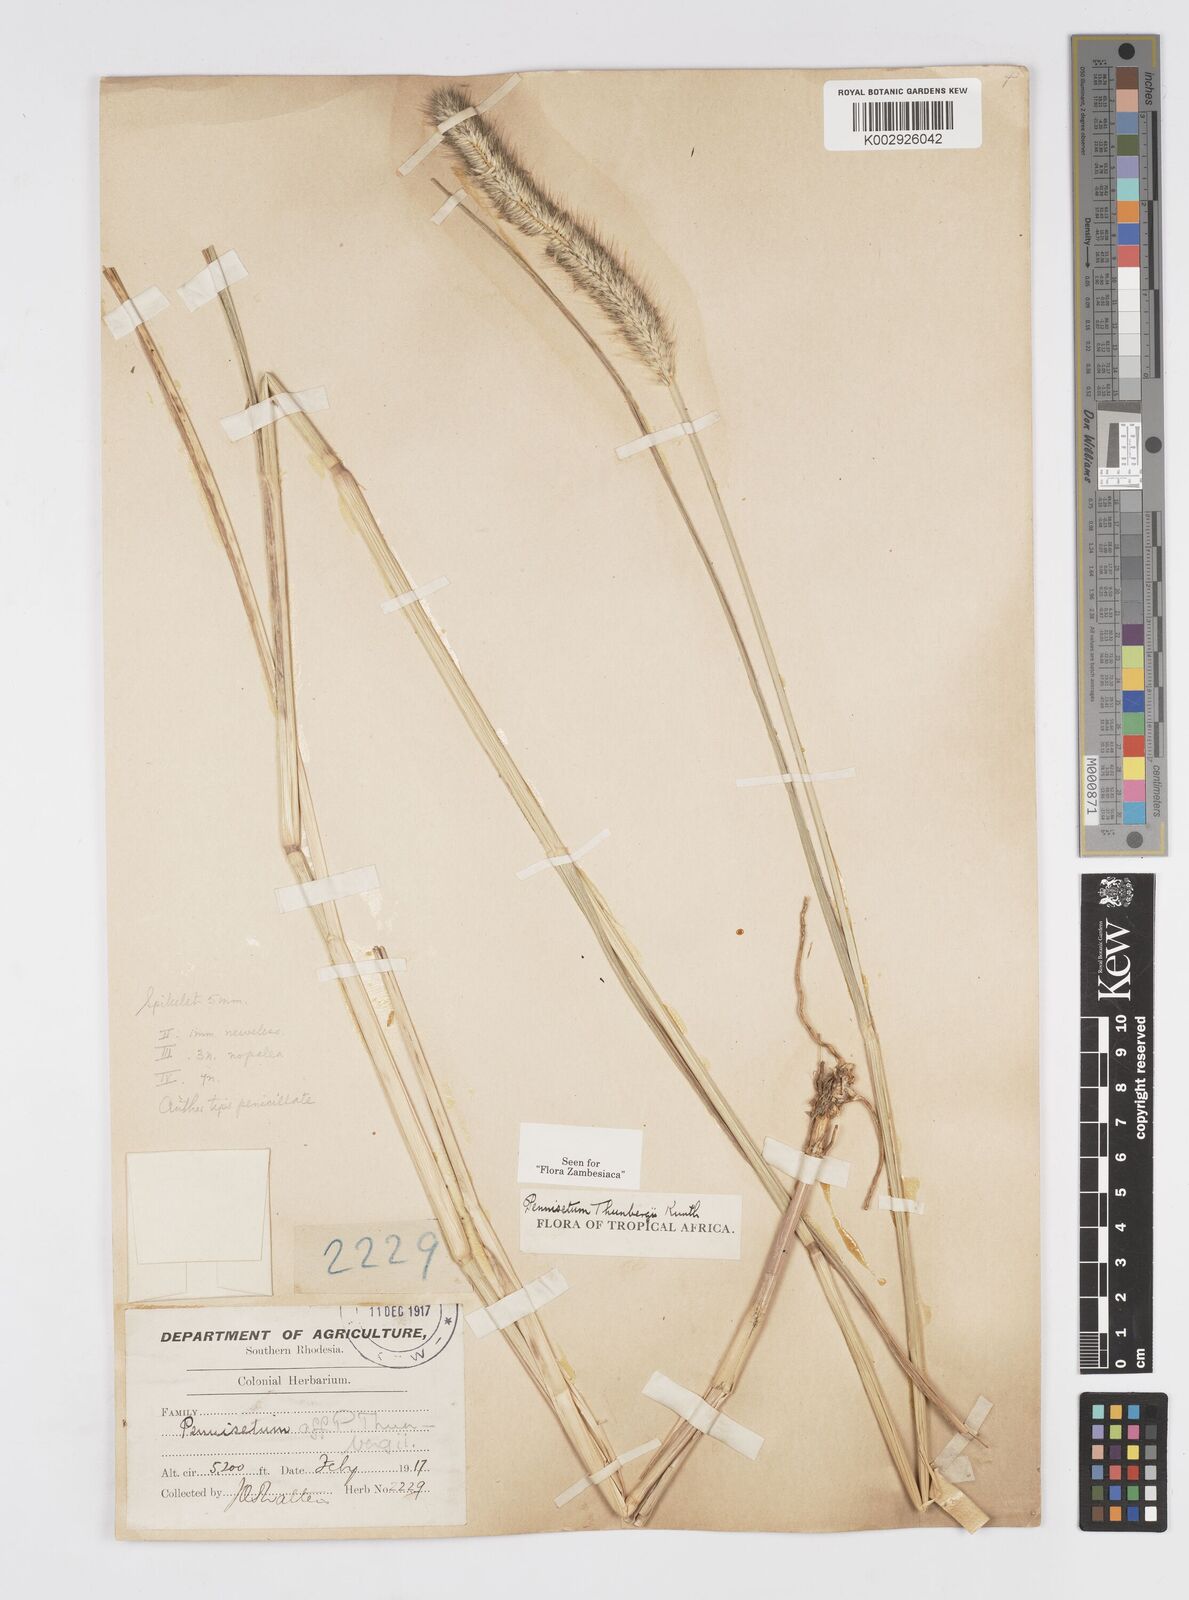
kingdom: Plantae
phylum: Tracheophyta
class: Liliopsida
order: Poales
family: Poaceae
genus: Cenchrus
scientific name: Cenchrus geniculatus
